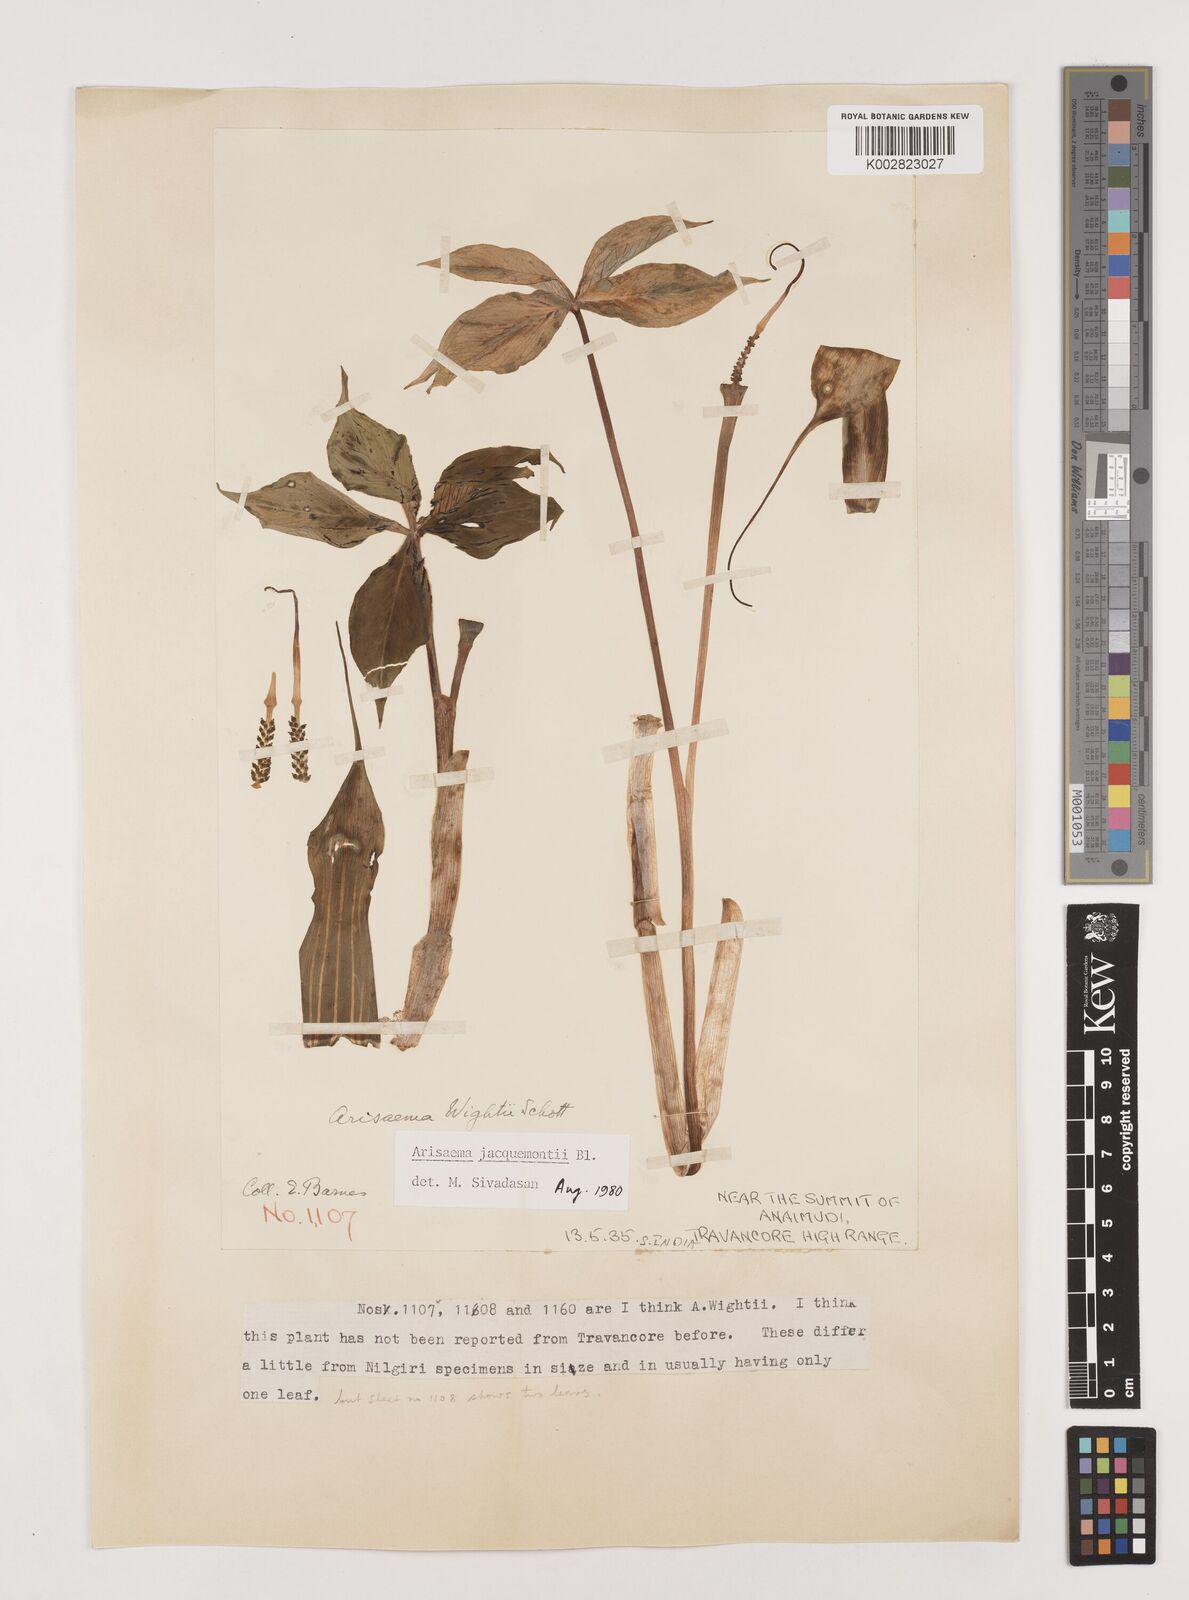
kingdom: Plantae
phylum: Tracheophyta
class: Liliopsida
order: Alismatales
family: Araceae
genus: Arisaema
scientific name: Arisaema jacquemontii
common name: Jacquemont's cobra-lily
